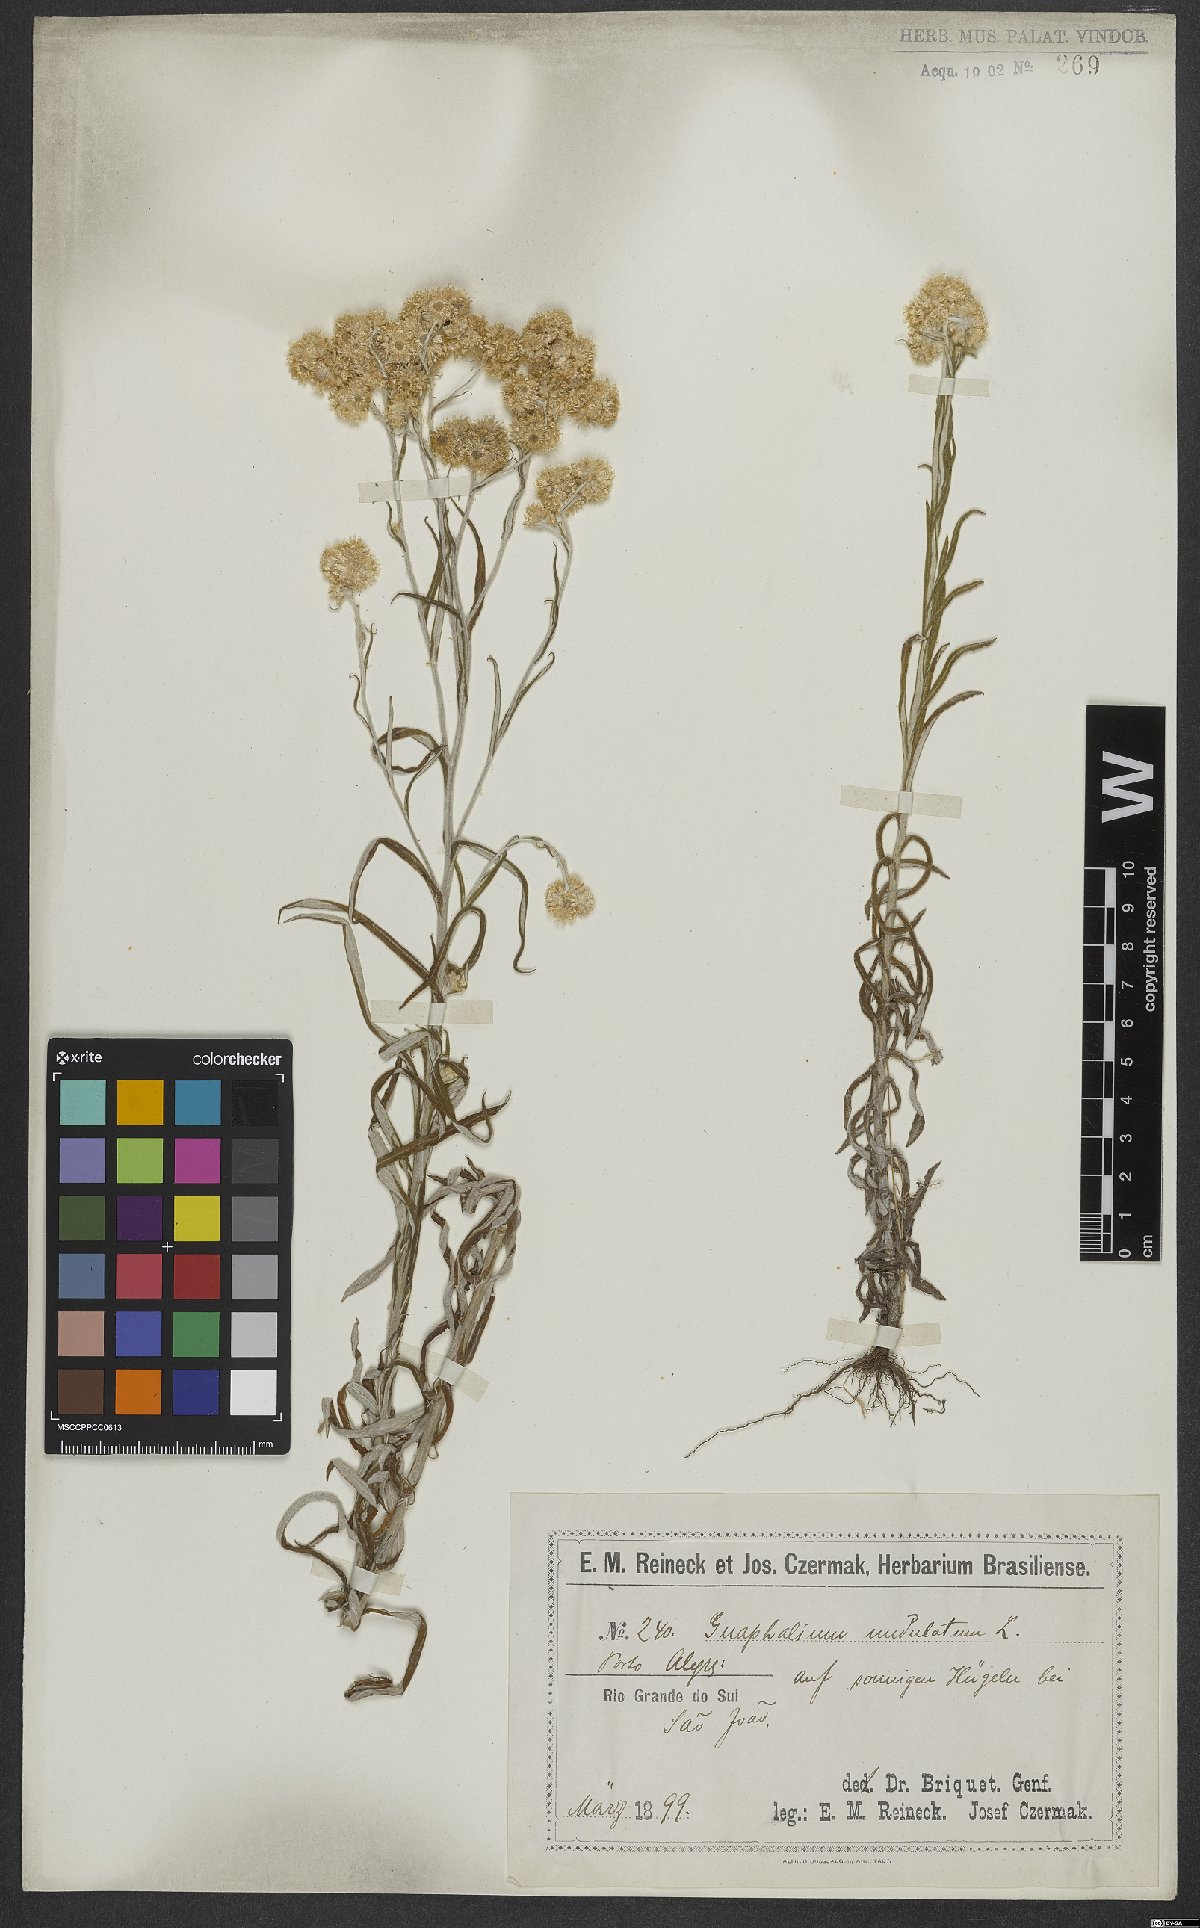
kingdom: Plantae
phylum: Tracheophyta
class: Magnoliopsida
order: Asterales
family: Asteraceae
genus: Pseudognaphalium
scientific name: Pseudognaphalium undulatum
